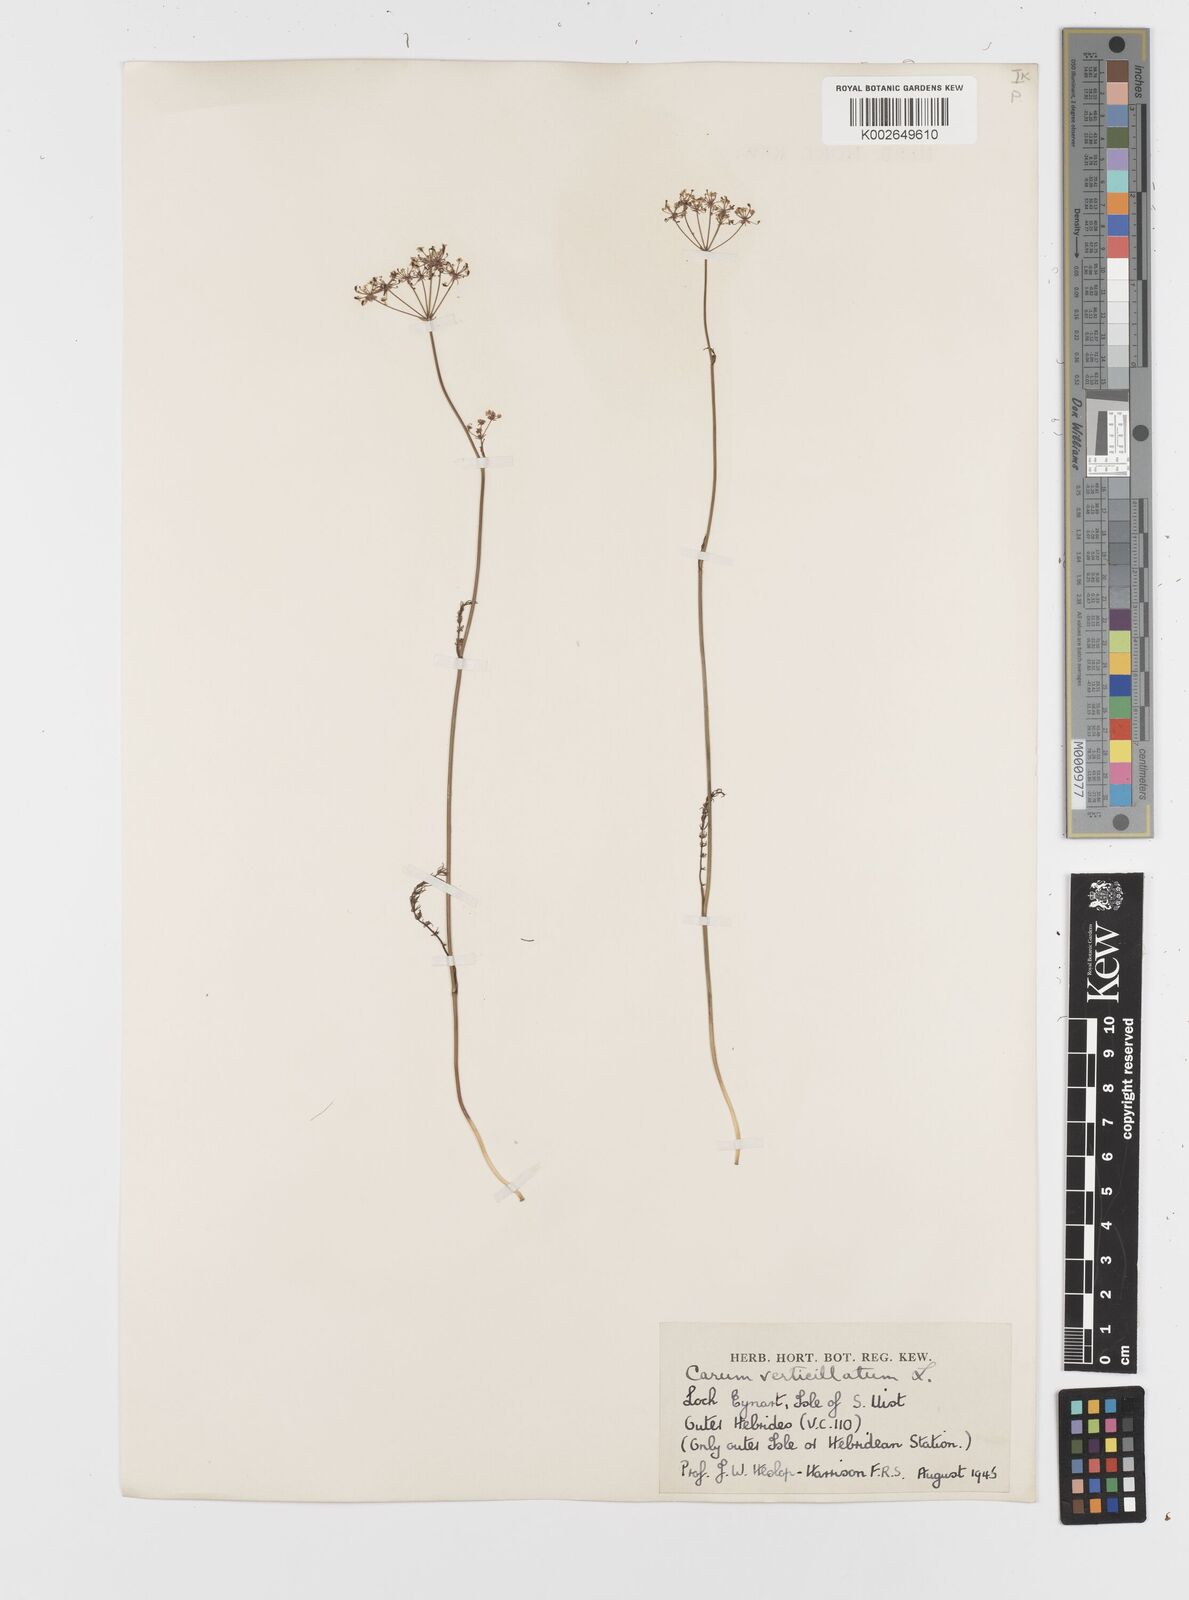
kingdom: Plantae
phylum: Tracheophyta
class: Magnoliopsida
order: Apiales
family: Apiaceae
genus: Trocdaris
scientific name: Trocdaris verticillatum
